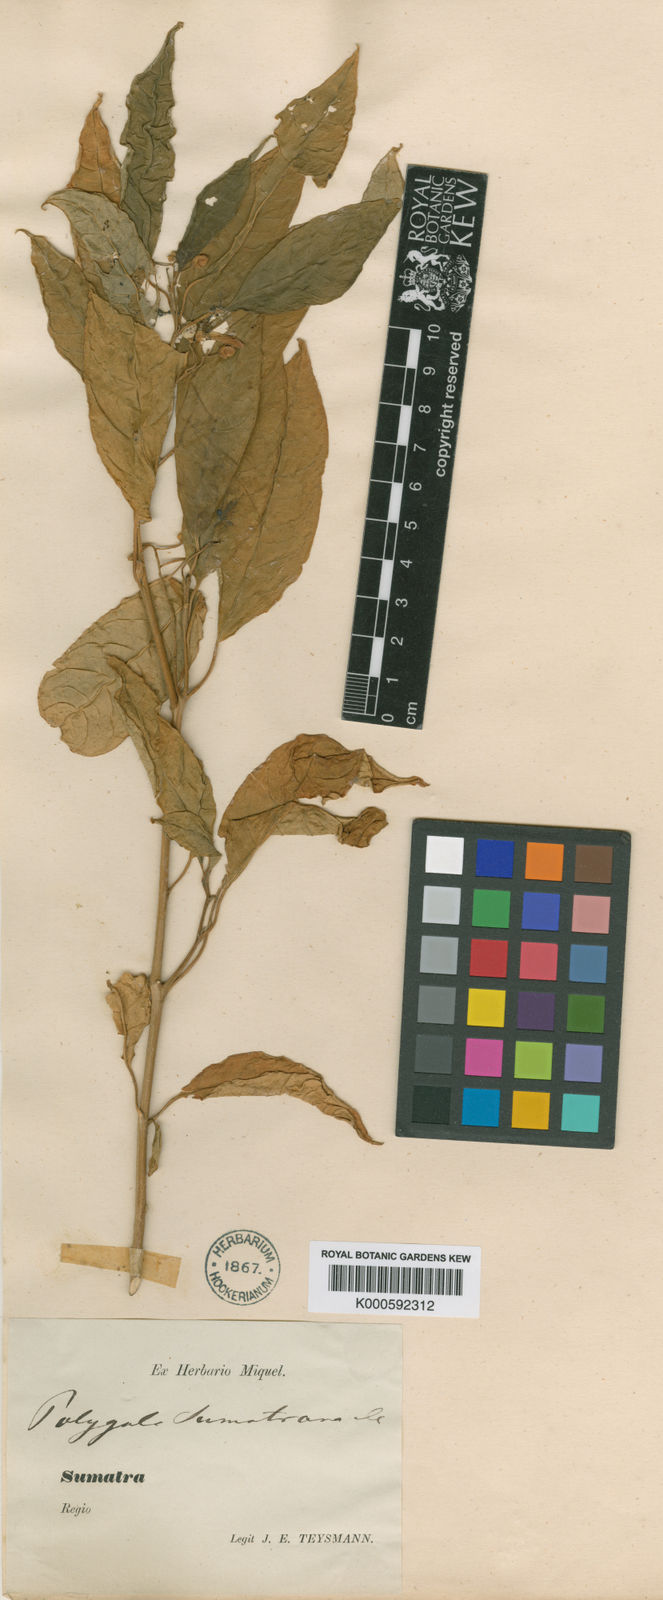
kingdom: Plantae
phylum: Tracheophyta
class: Magnoliopsida
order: Fabales
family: Polygalaceae
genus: Polygala
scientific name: Polygala venenosa
